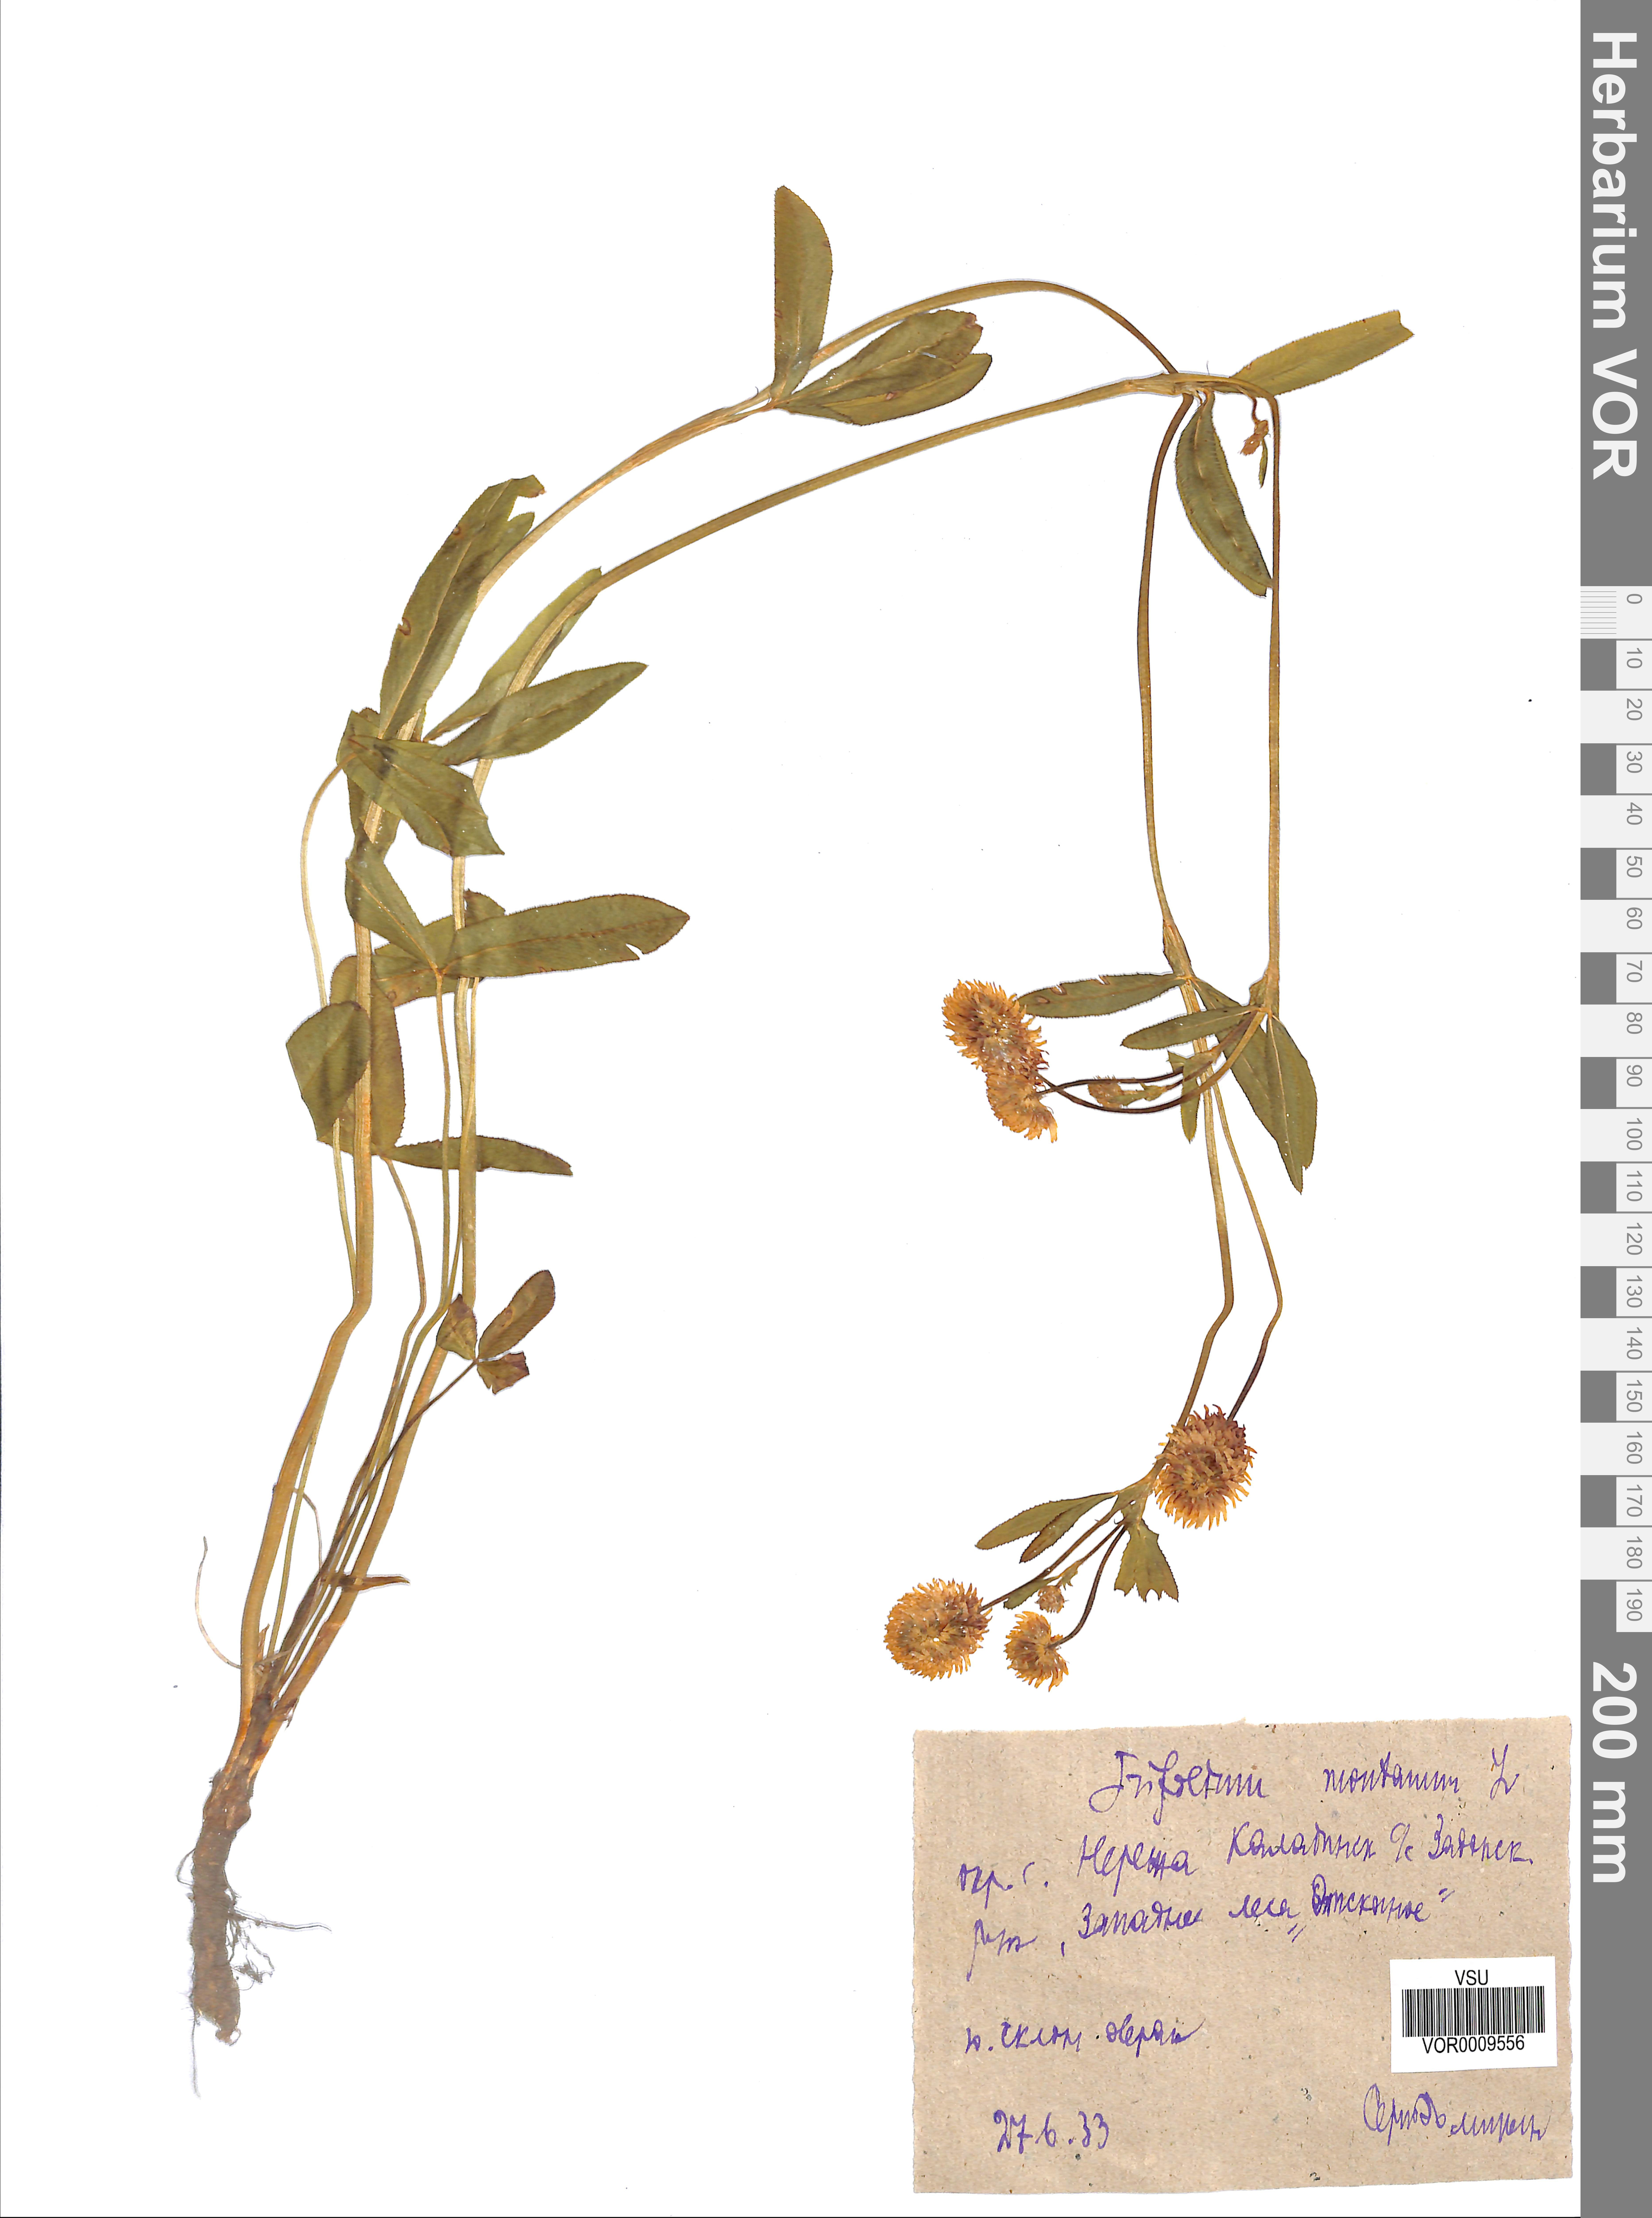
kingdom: Plantae
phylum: Tracheophyta
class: Magnoliopsida
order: Fabales
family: Fabaceae
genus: Trifolium
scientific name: Trifolium montanum
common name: Mountain clover
